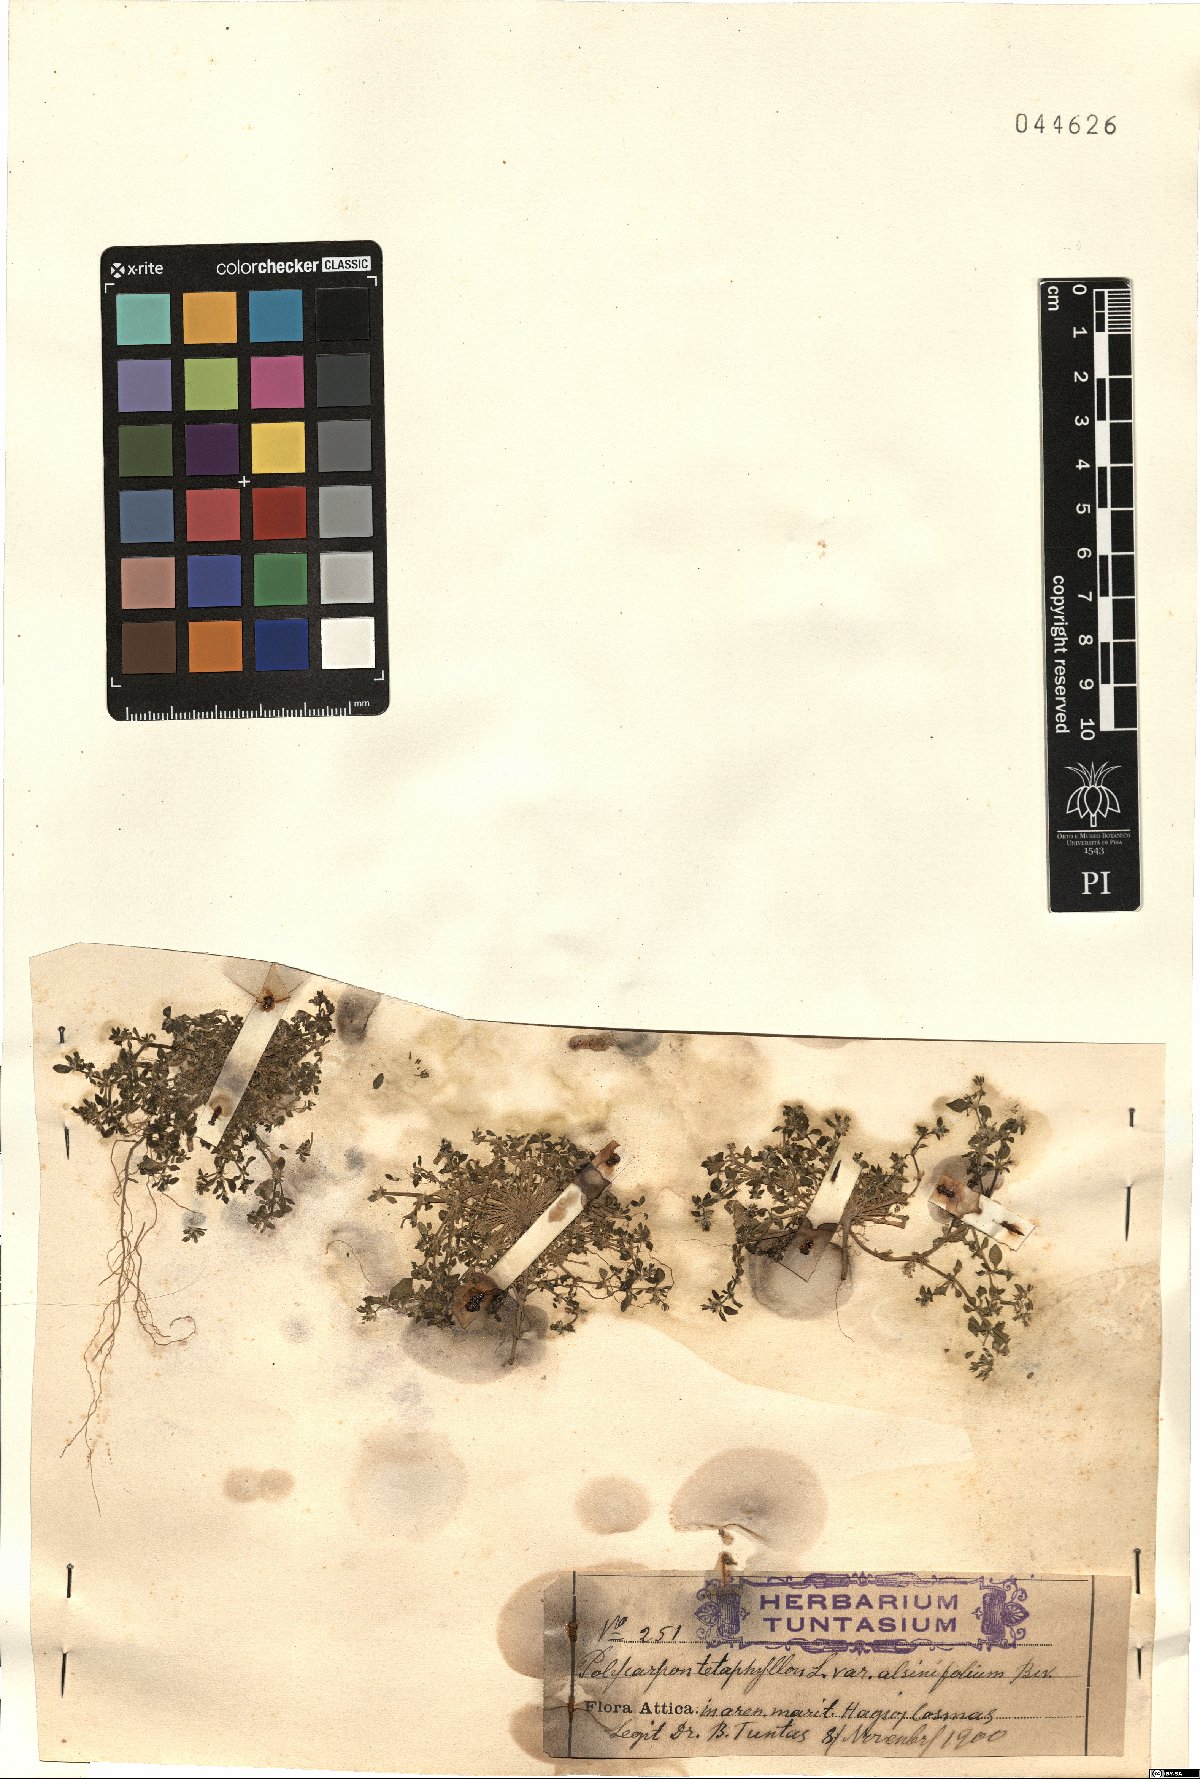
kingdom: Plantae
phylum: Tracheophyta
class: Magnoliopsida
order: Caryophyllales
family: Caryophyllaceae
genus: Polycarpon
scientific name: Polycarpon alsinifolium
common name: Fourleaf manyseed
